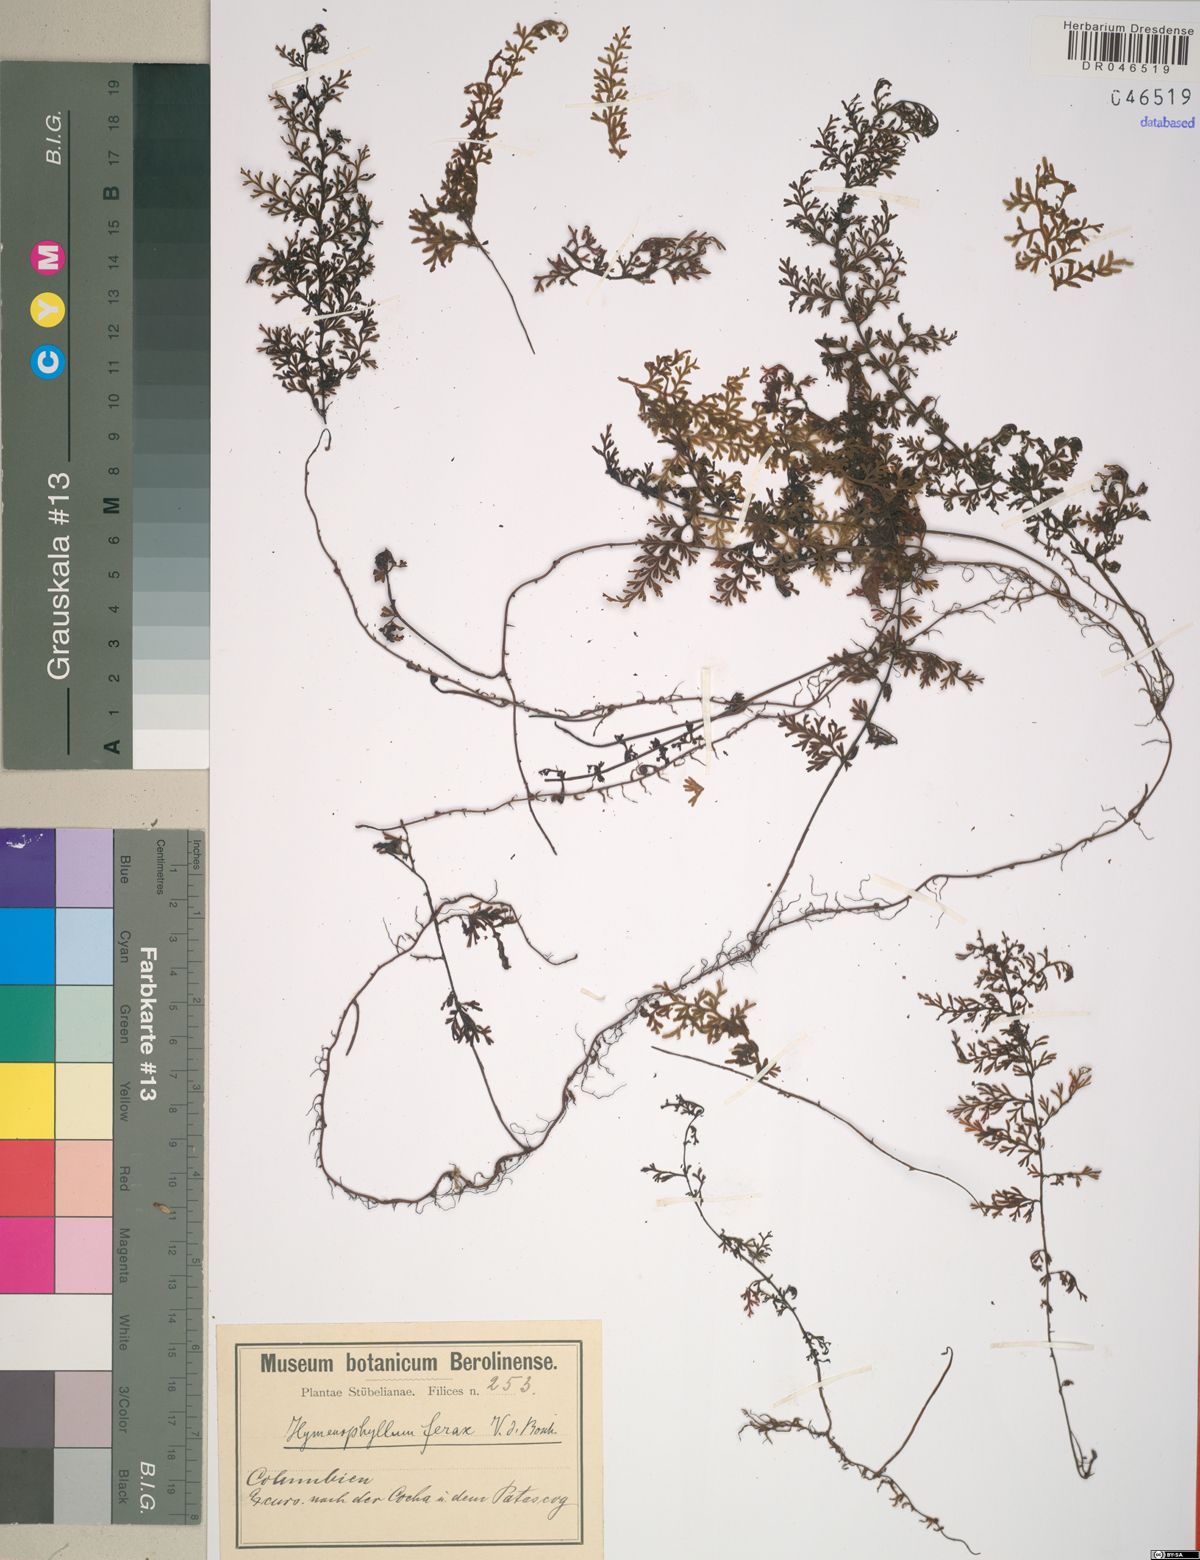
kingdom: Plantae
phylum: Tracheophyta
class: Polypodiopsida
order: Hymenophyllales
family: Hymenophyllaceae
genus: Hymenophyllum
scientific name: Hymenophyllum ferax
